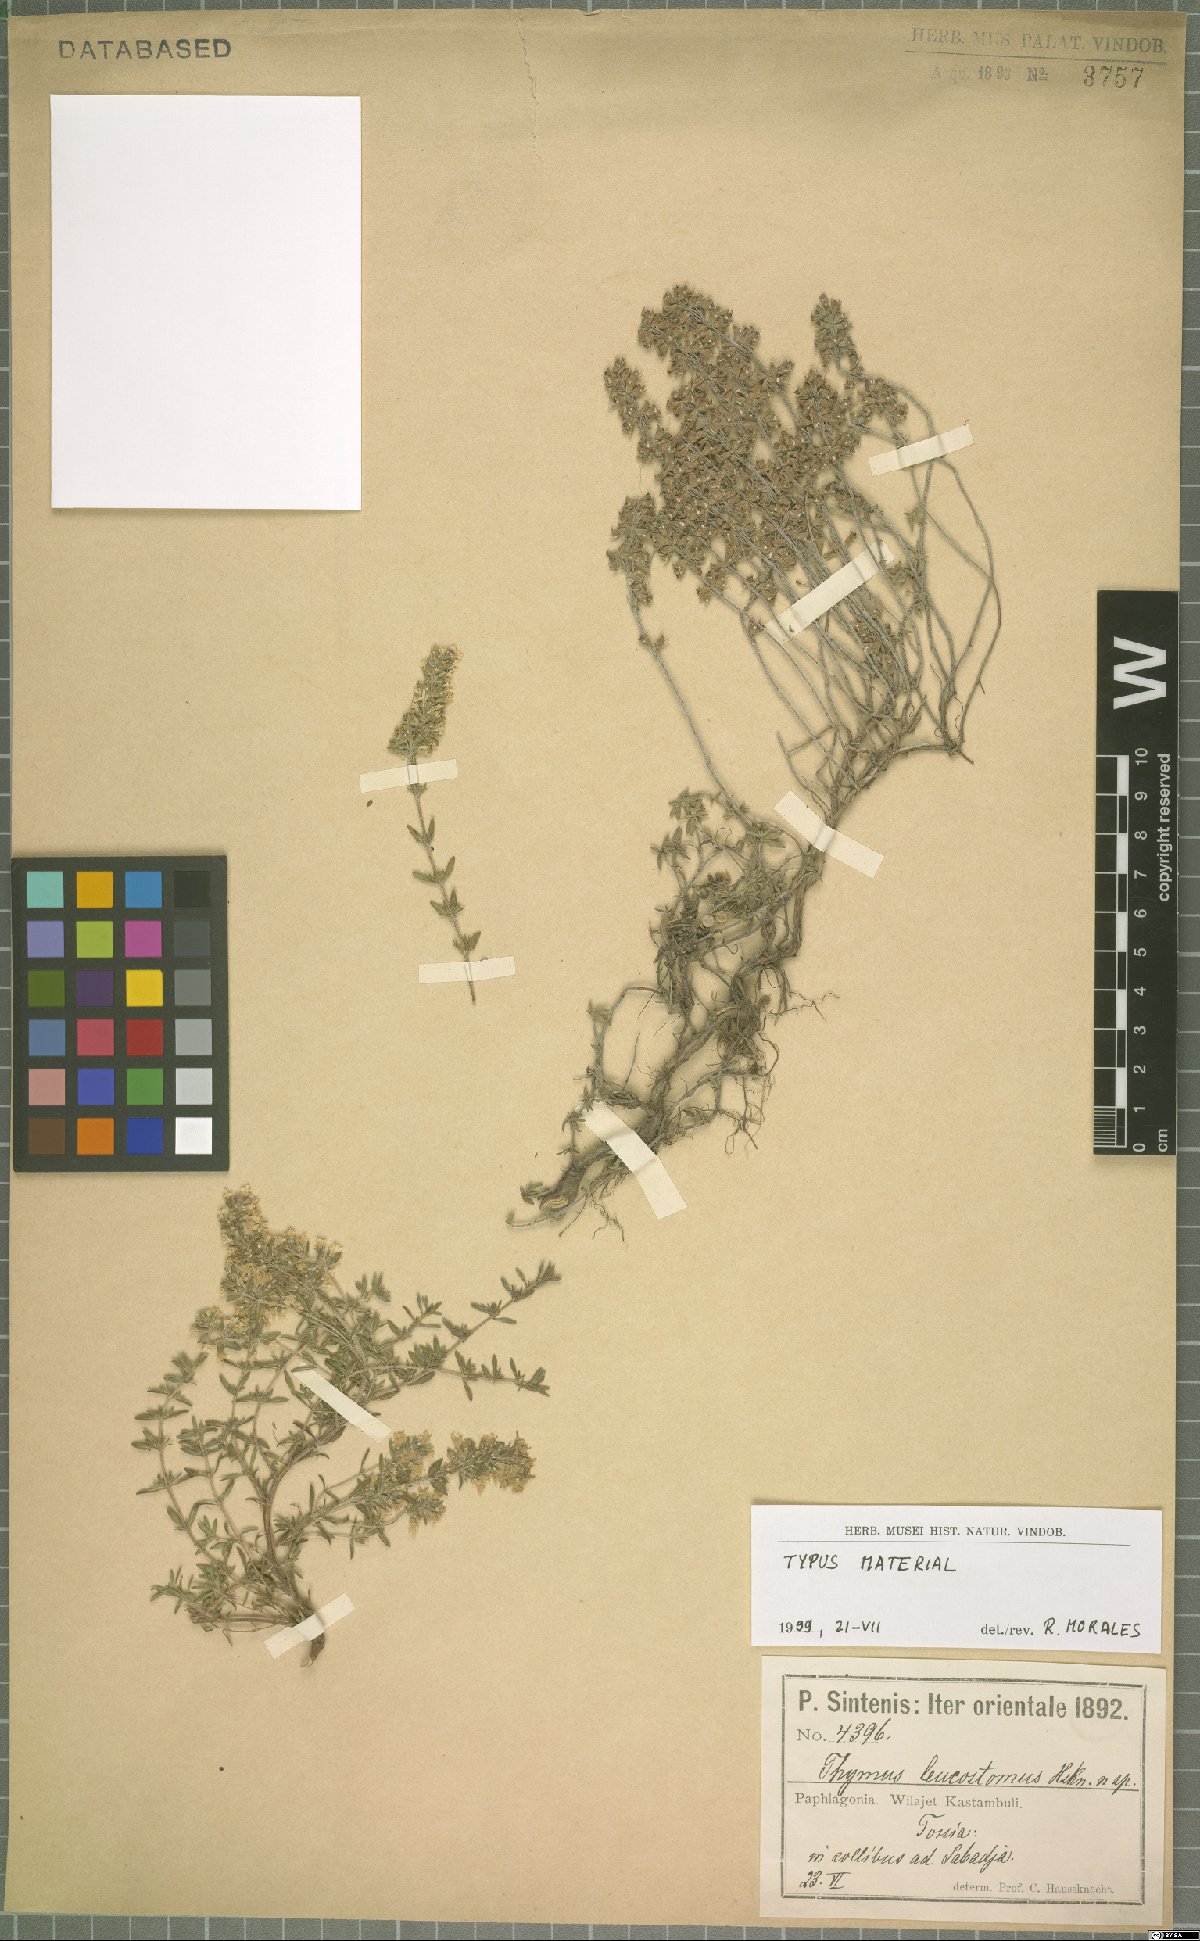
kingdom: Plantae
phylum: Tracheophyta
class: Magnoliopsida
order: Lamiales
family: Lamiaceae
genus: Thymus
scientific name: Thymus leucostomus
